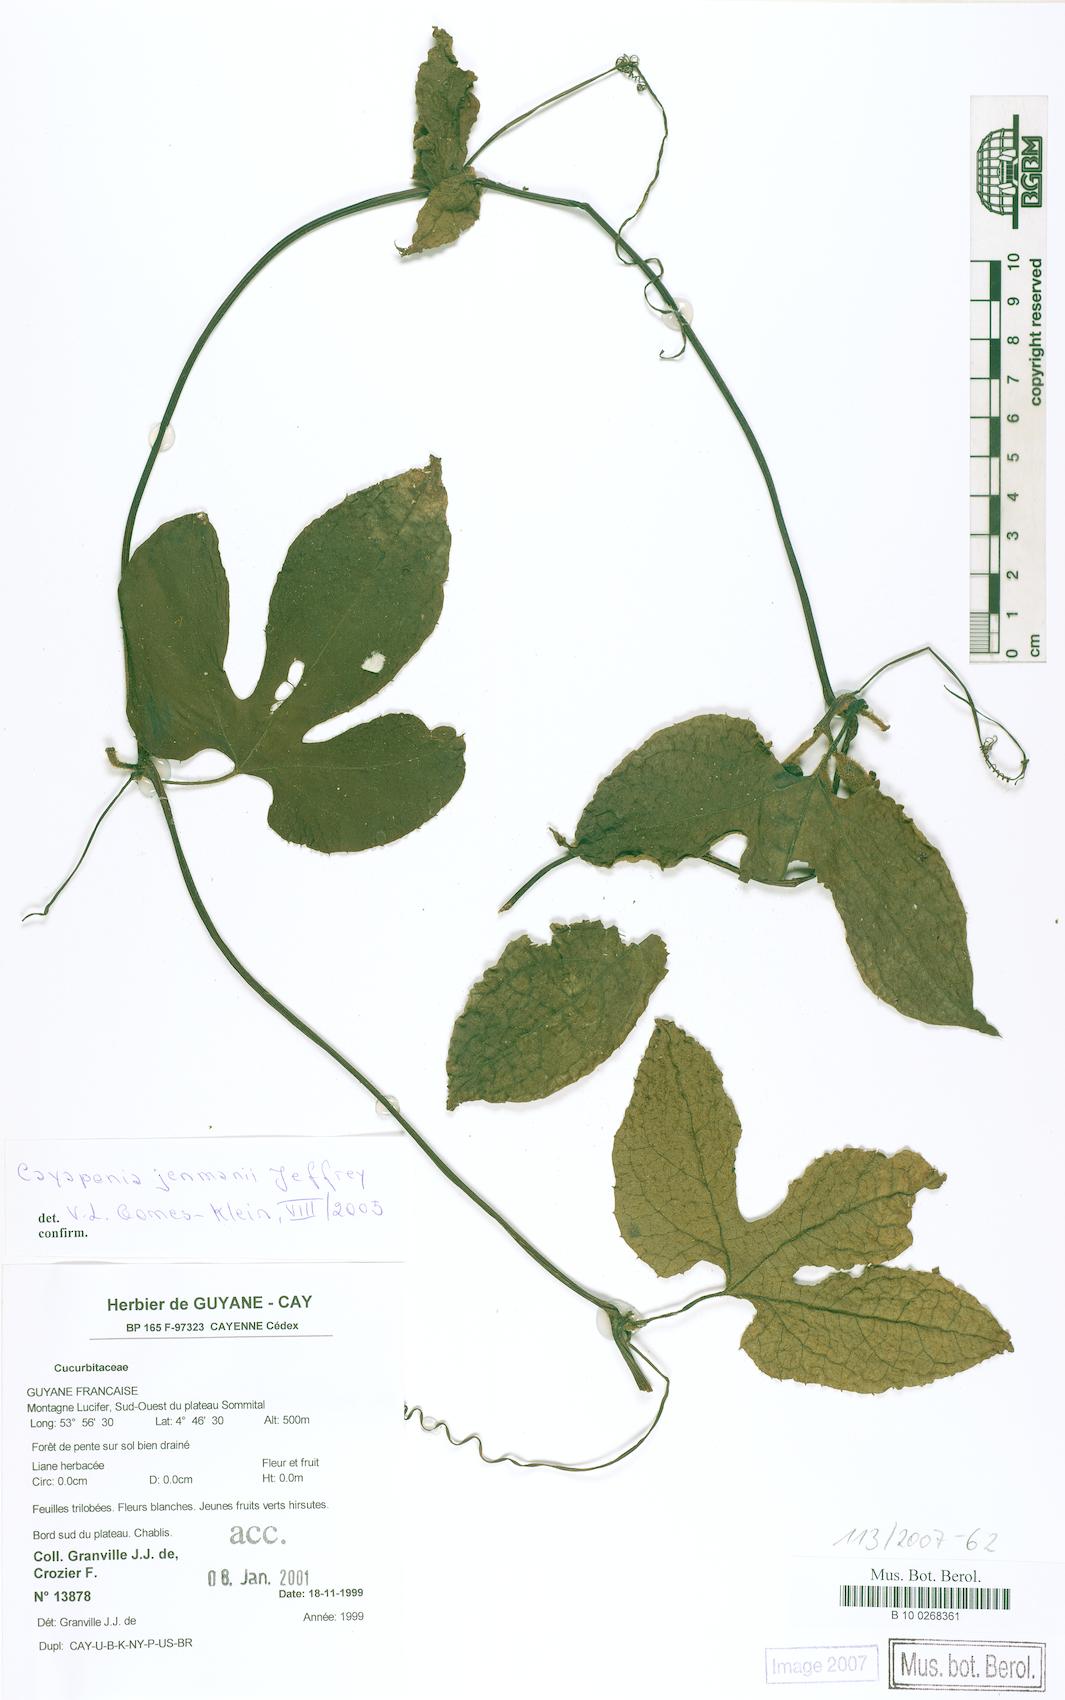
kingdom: Plantae
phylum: Tracheophyta
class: Magnoliopsida
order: Cucurbitales
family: Cucurbitaceae
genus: Cayaponia
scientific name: Cayaponia peruviana
